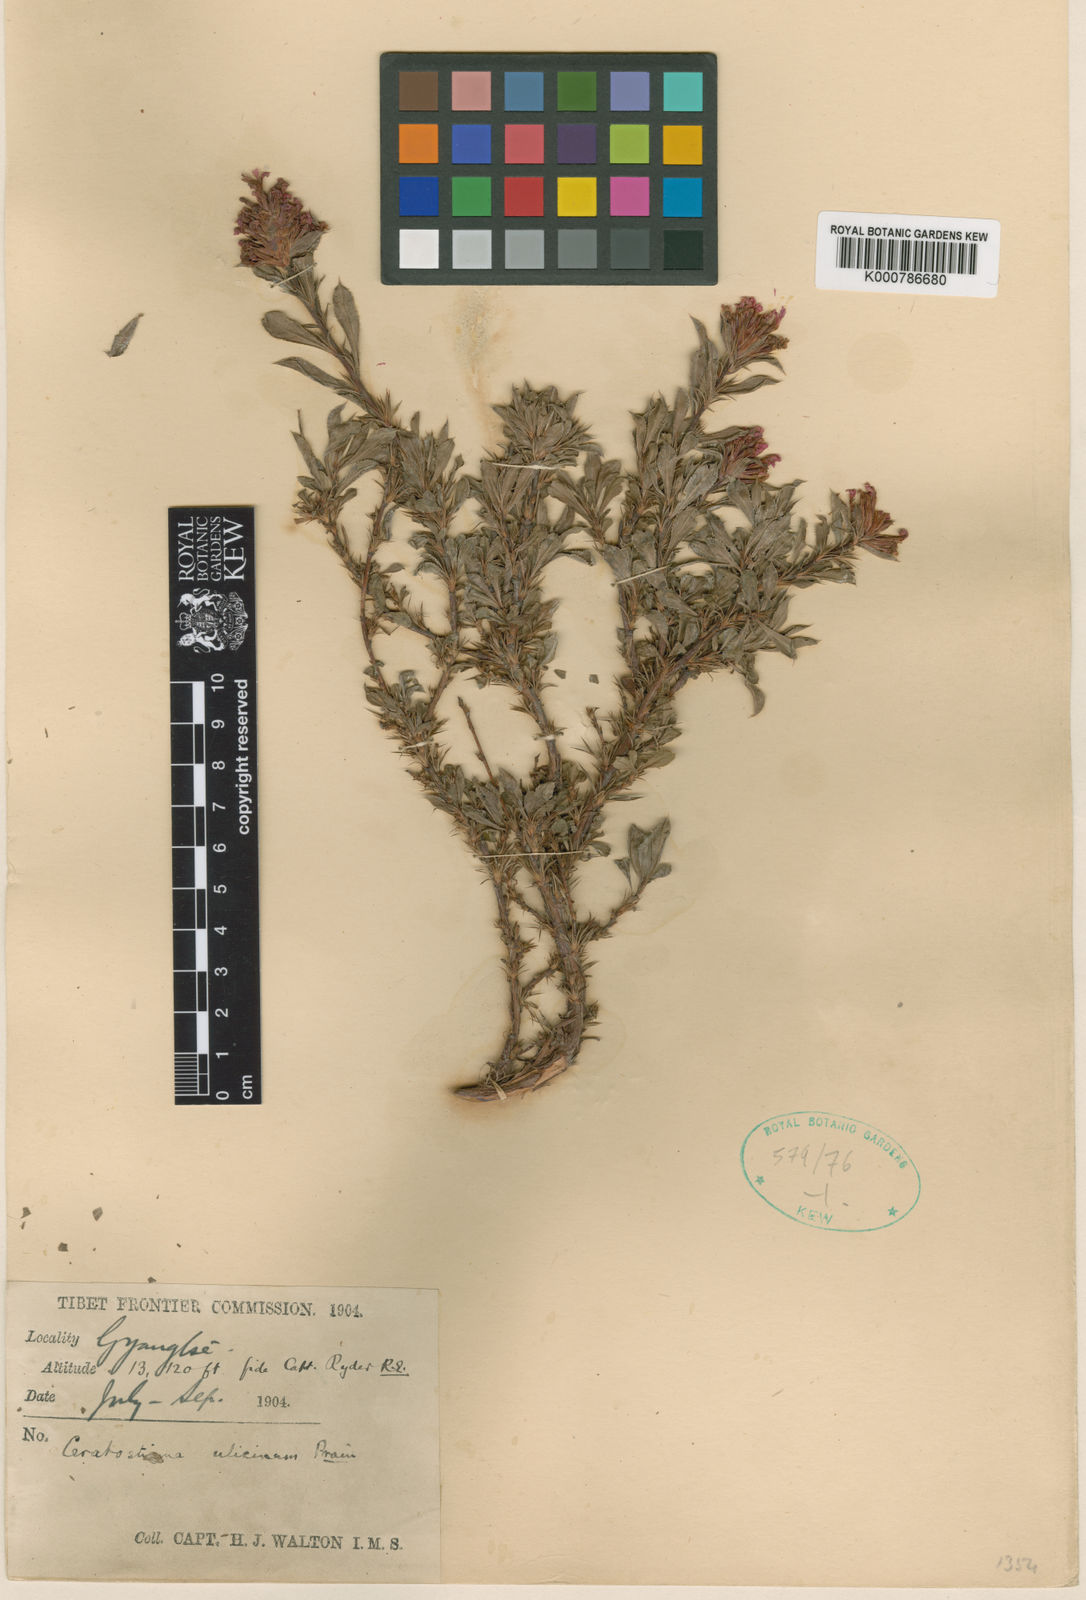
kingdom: Plantae
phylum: Tracheophyta
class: Magnoliopsida
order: Caryophyllales
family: Plumbaginaceae
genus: Ceratostigma
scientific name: Ceratostigma ulicinum
